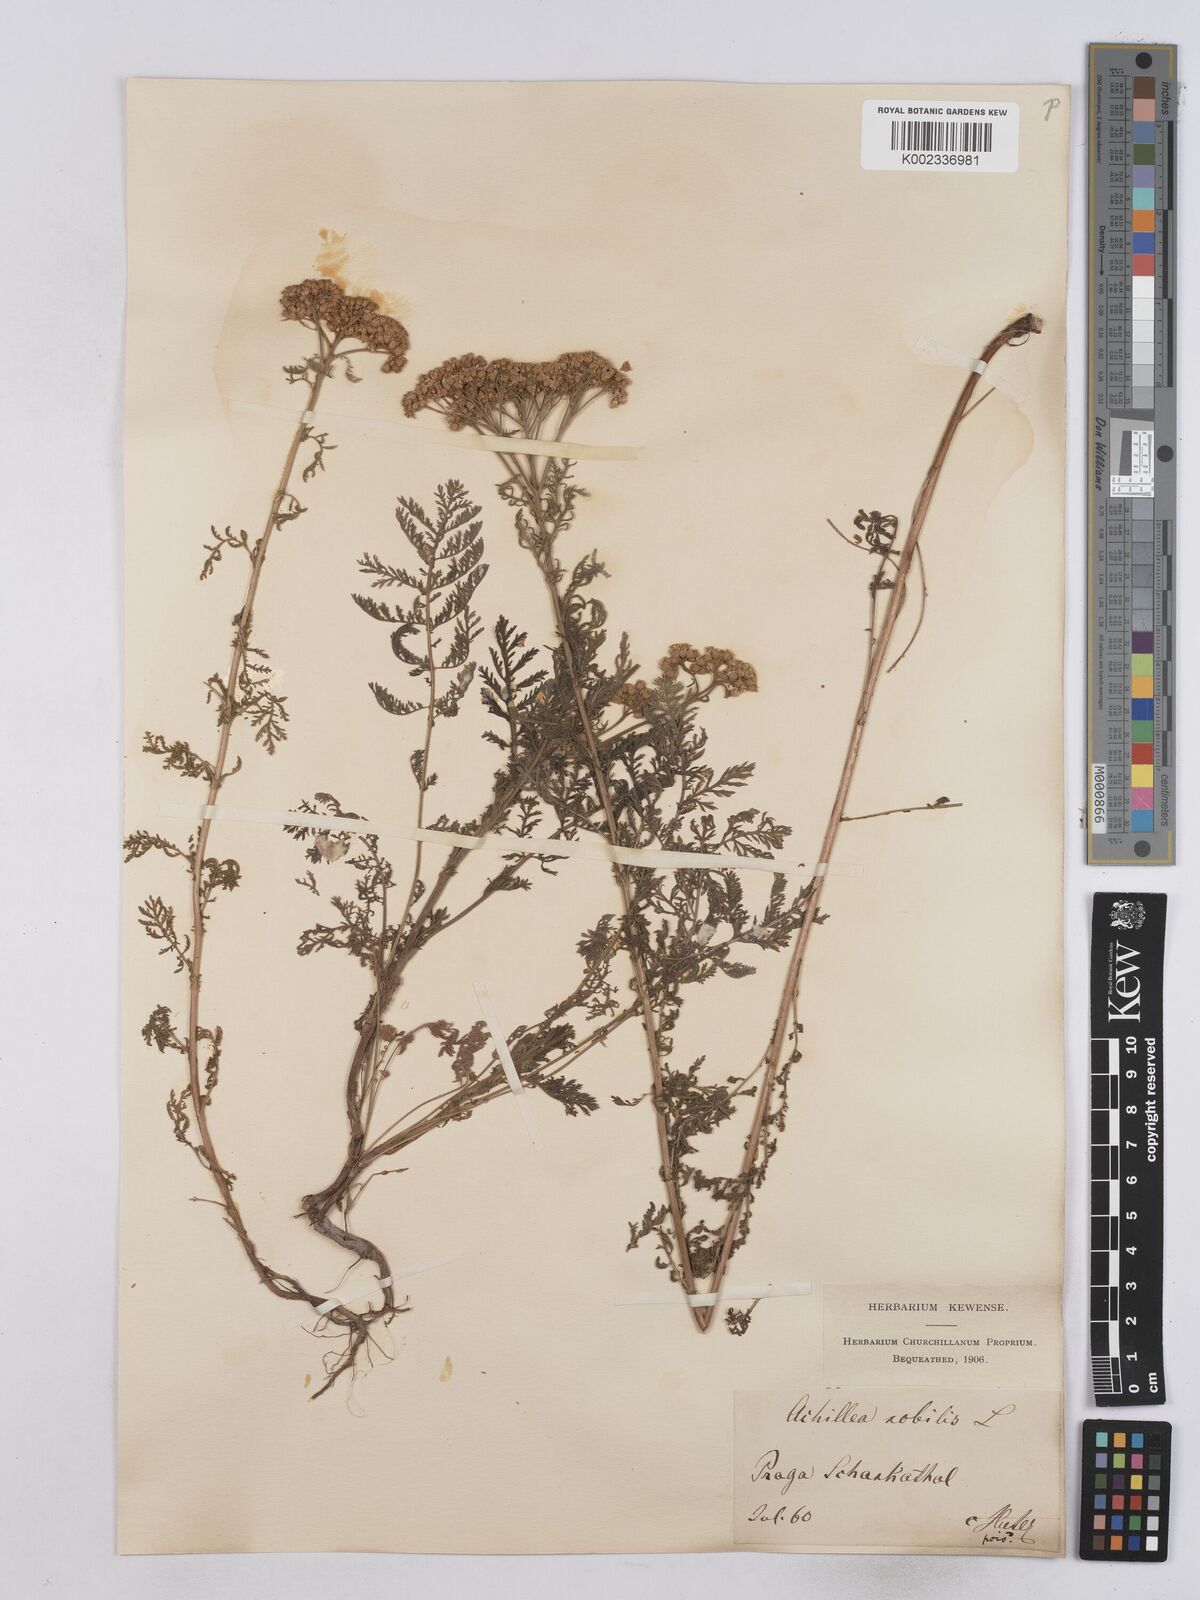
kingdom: Plantae
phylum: Tracheophyta
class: Magnoliopsida
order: Asterales
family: Asteraceae
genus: Achillea
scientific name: Achillea nobilis
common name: Noble yarrow
